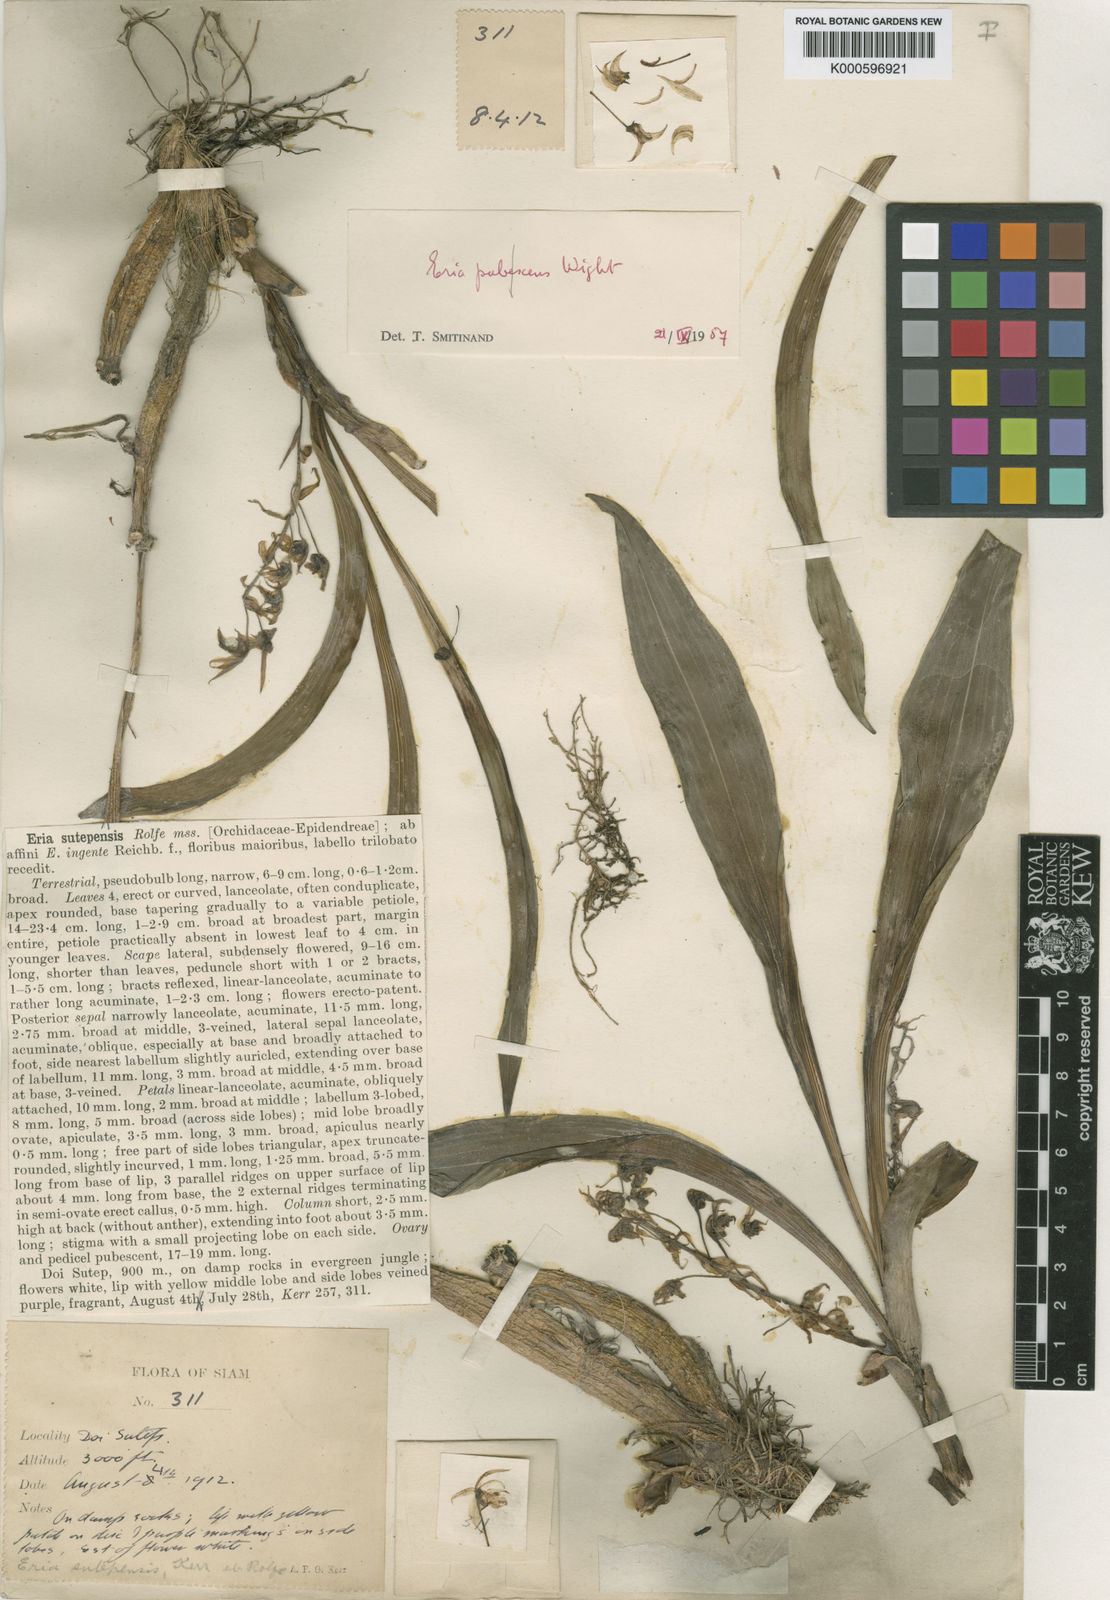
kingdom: Plantae
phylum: Tracheophyta
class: Liliopsida
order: Asparagales
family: Orchidaceae
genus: Pinalia
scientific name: Pinalia sutepensis
